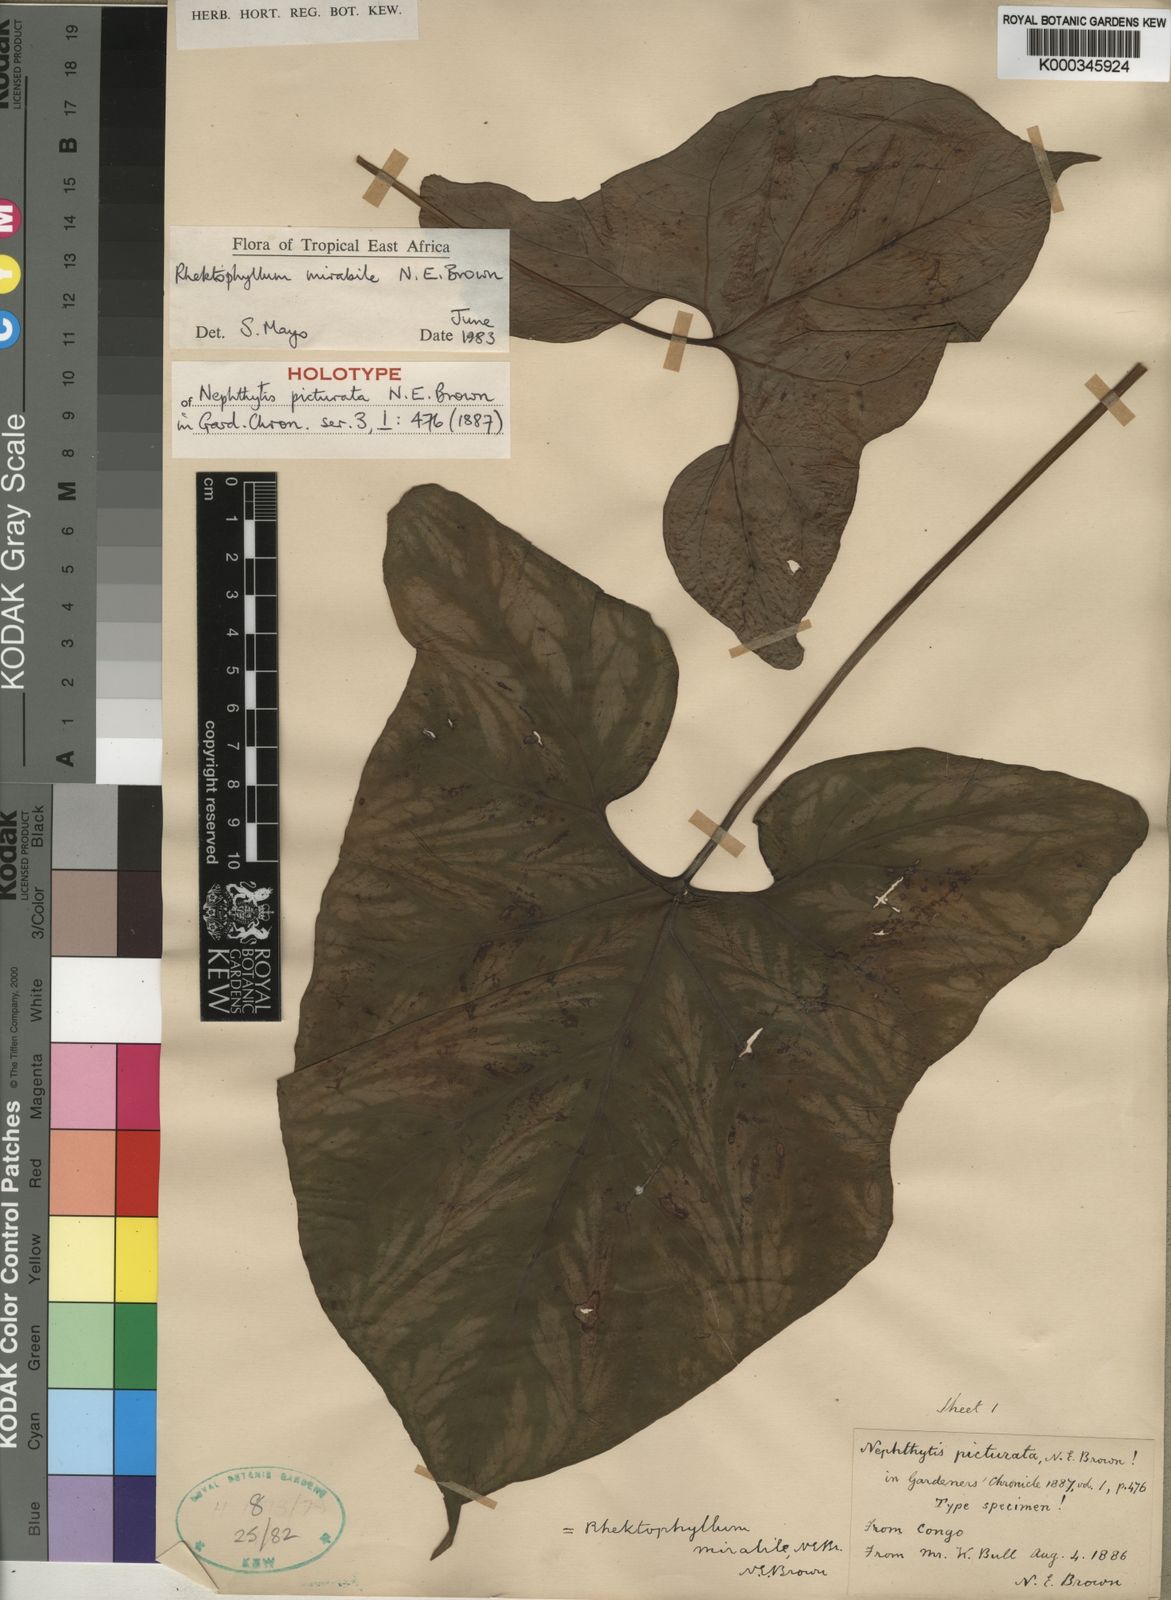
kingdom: Plantae
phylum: Tracheophyta
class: Liliopsida
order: Alismatales
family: Araceae
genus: Cercestis
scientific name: Cercestis mirabilis
